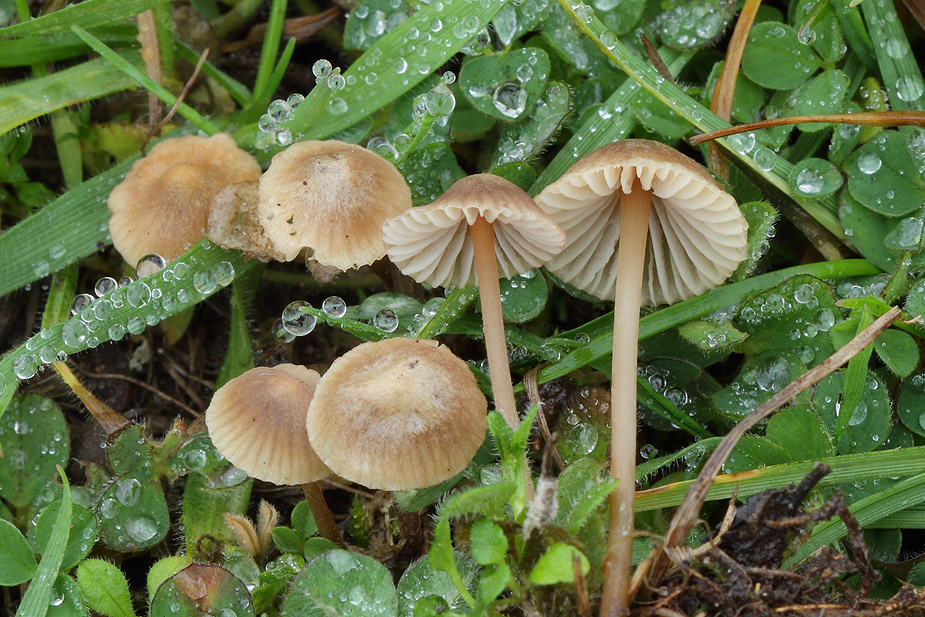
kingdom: Fungi
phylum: Basidiomycota
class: Agaricomycetes
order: Agaricales
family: Mycenaceae
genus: Mycena
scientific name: Mycena olivaceomarginata
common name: brunægget huesvamp
